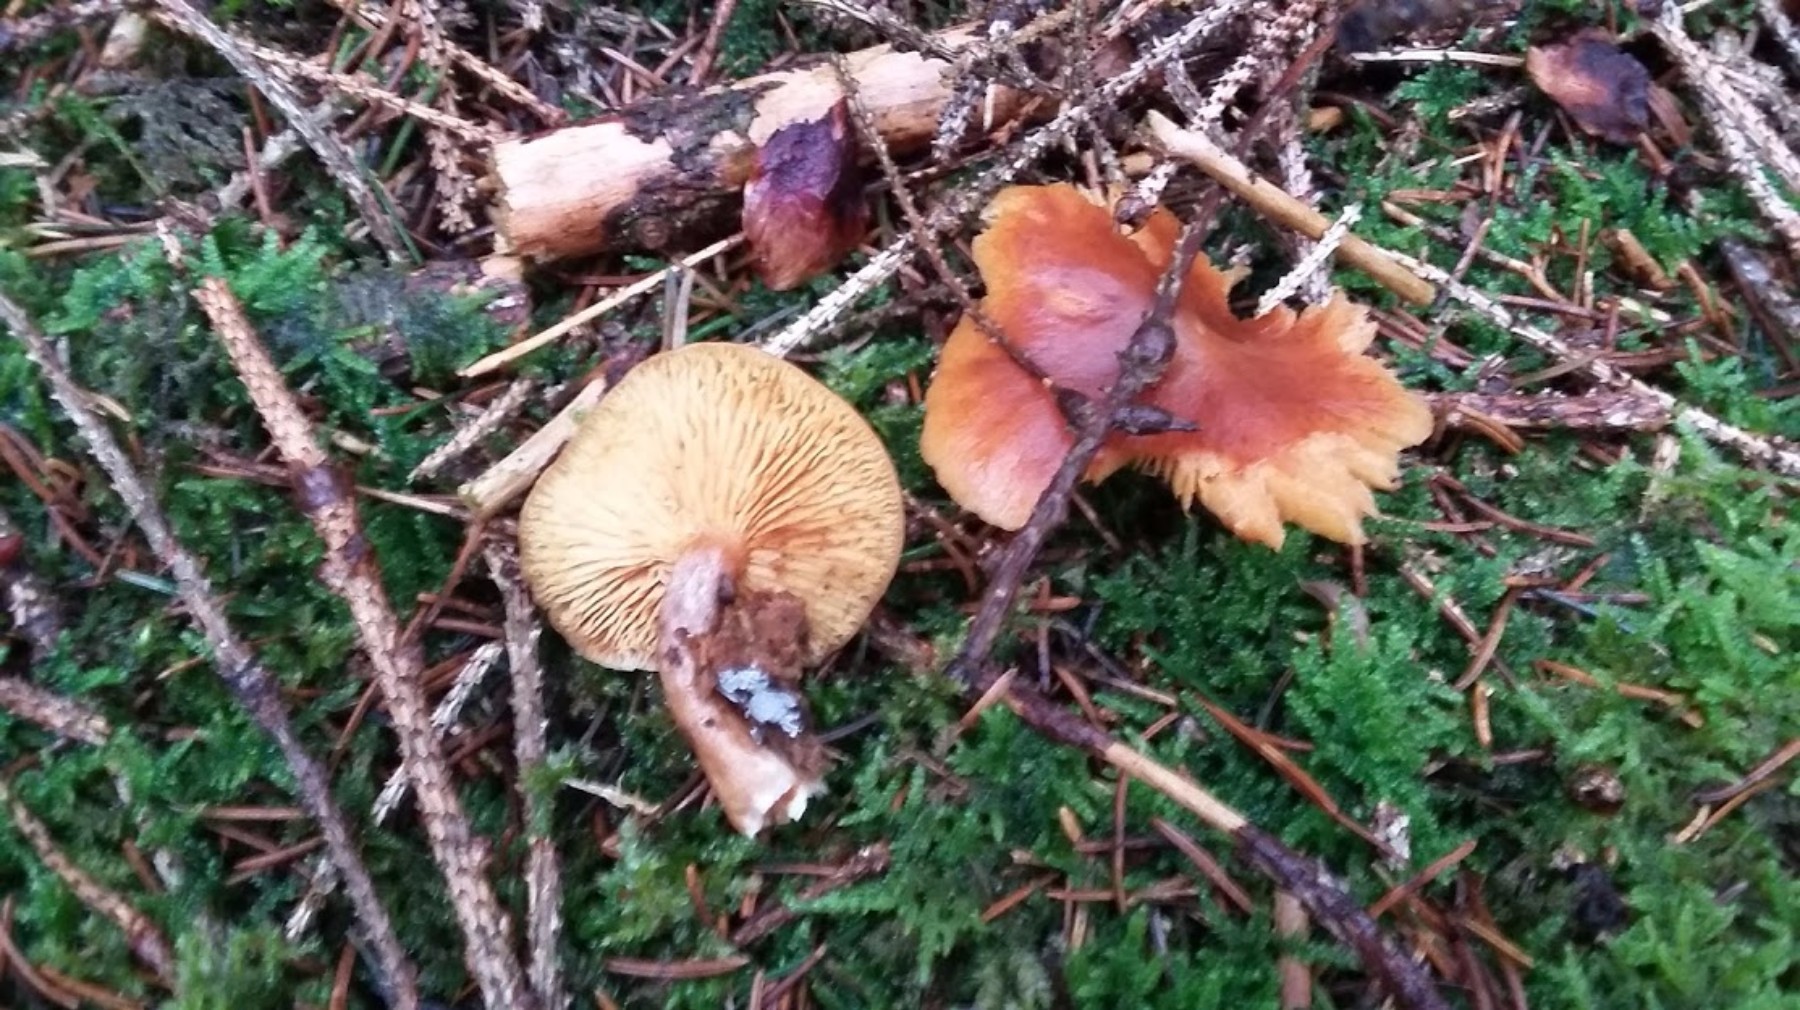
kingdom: Fungi
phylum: Basidiomycota
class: Agaricomycetes
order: Agaricales
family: Hymenogastraceae
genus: Gymnopilus
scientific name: Gymnopilus penetrans
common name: plettet flammehat
